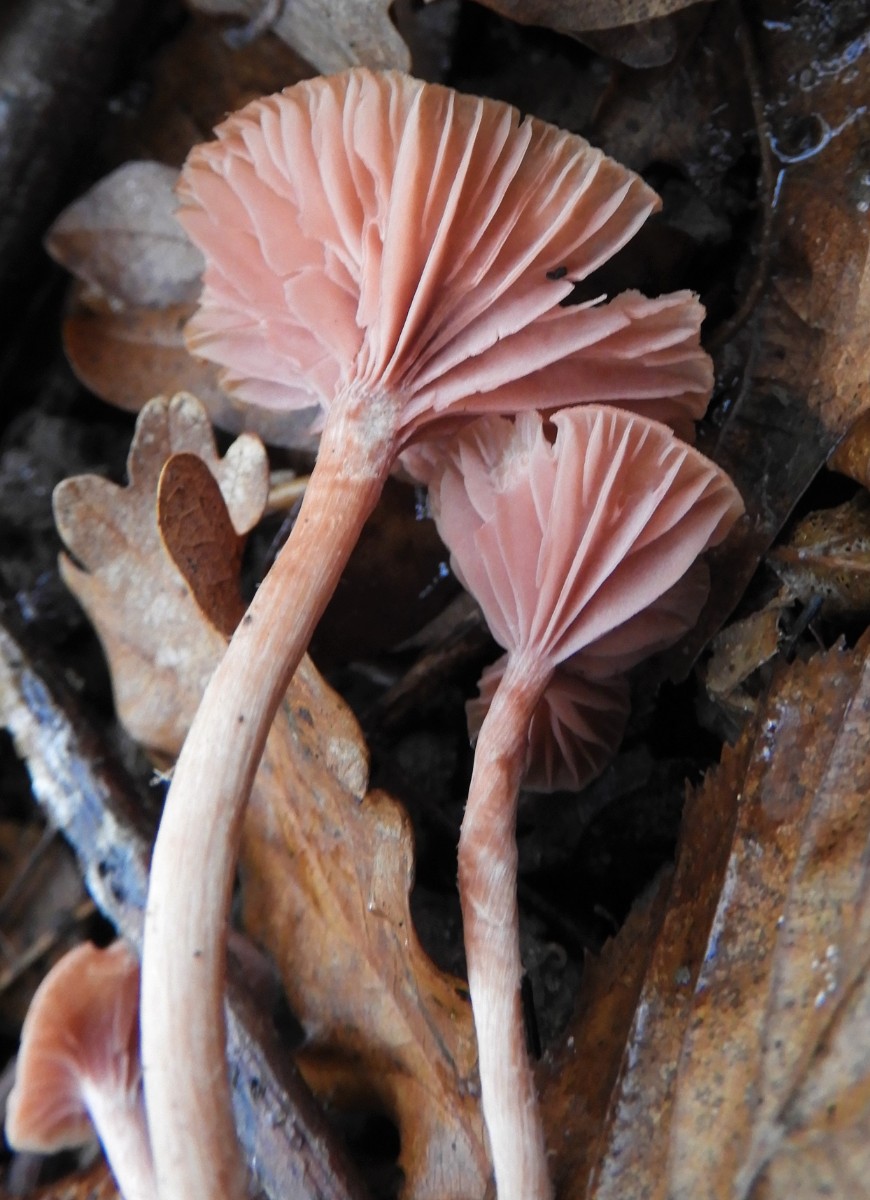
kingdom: Fungi
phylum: Basidiomycota
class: Agaricomycetes
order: Agaricales
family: Hydnangiaceae
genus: Laccaria
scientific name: Laccaria laccata
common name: rød ametysthat
